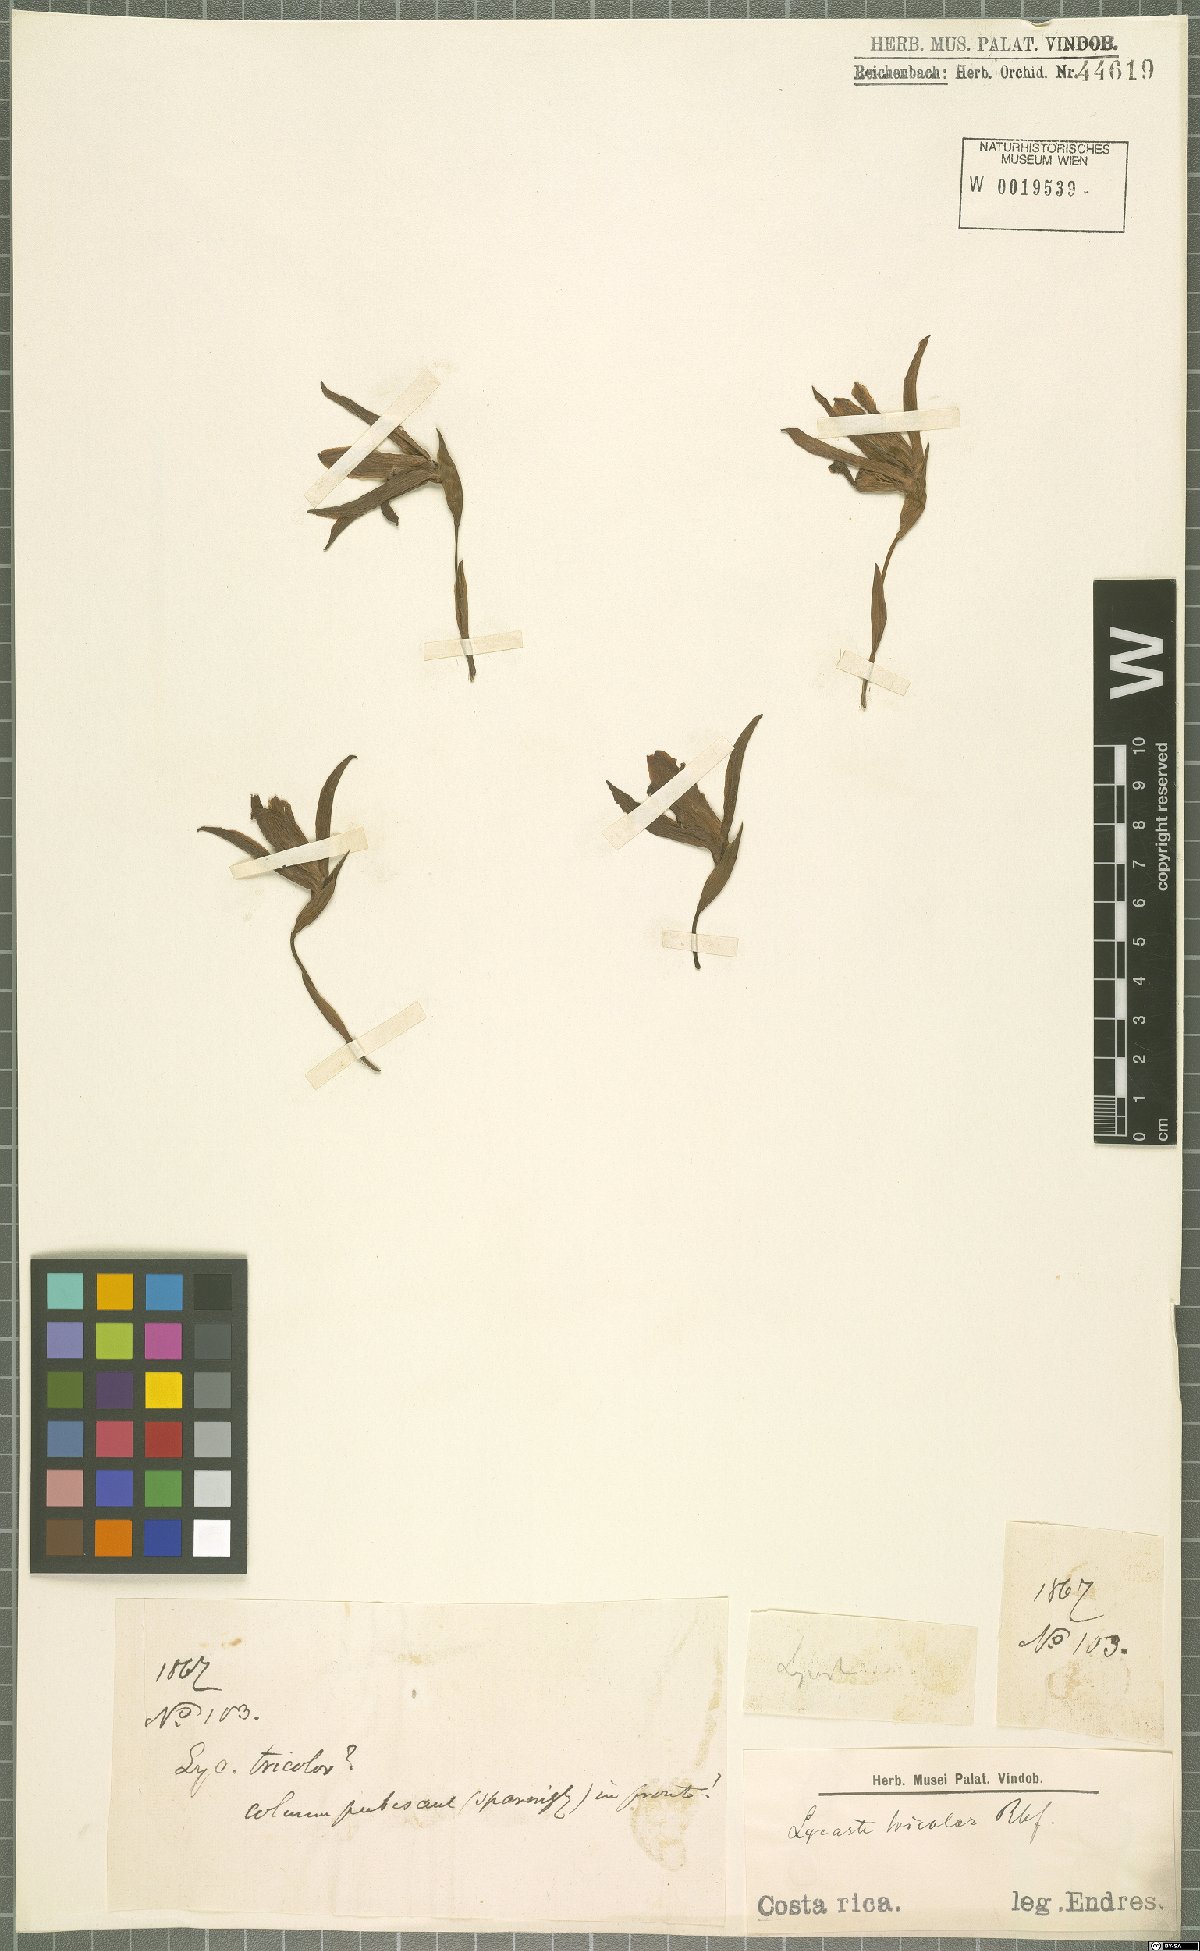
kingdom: Plantae
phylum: Tracheophyta
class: Liliopsida
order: Asparagales
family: Orchidaceae
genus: Lycaste
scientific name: Lycaste tricolor
